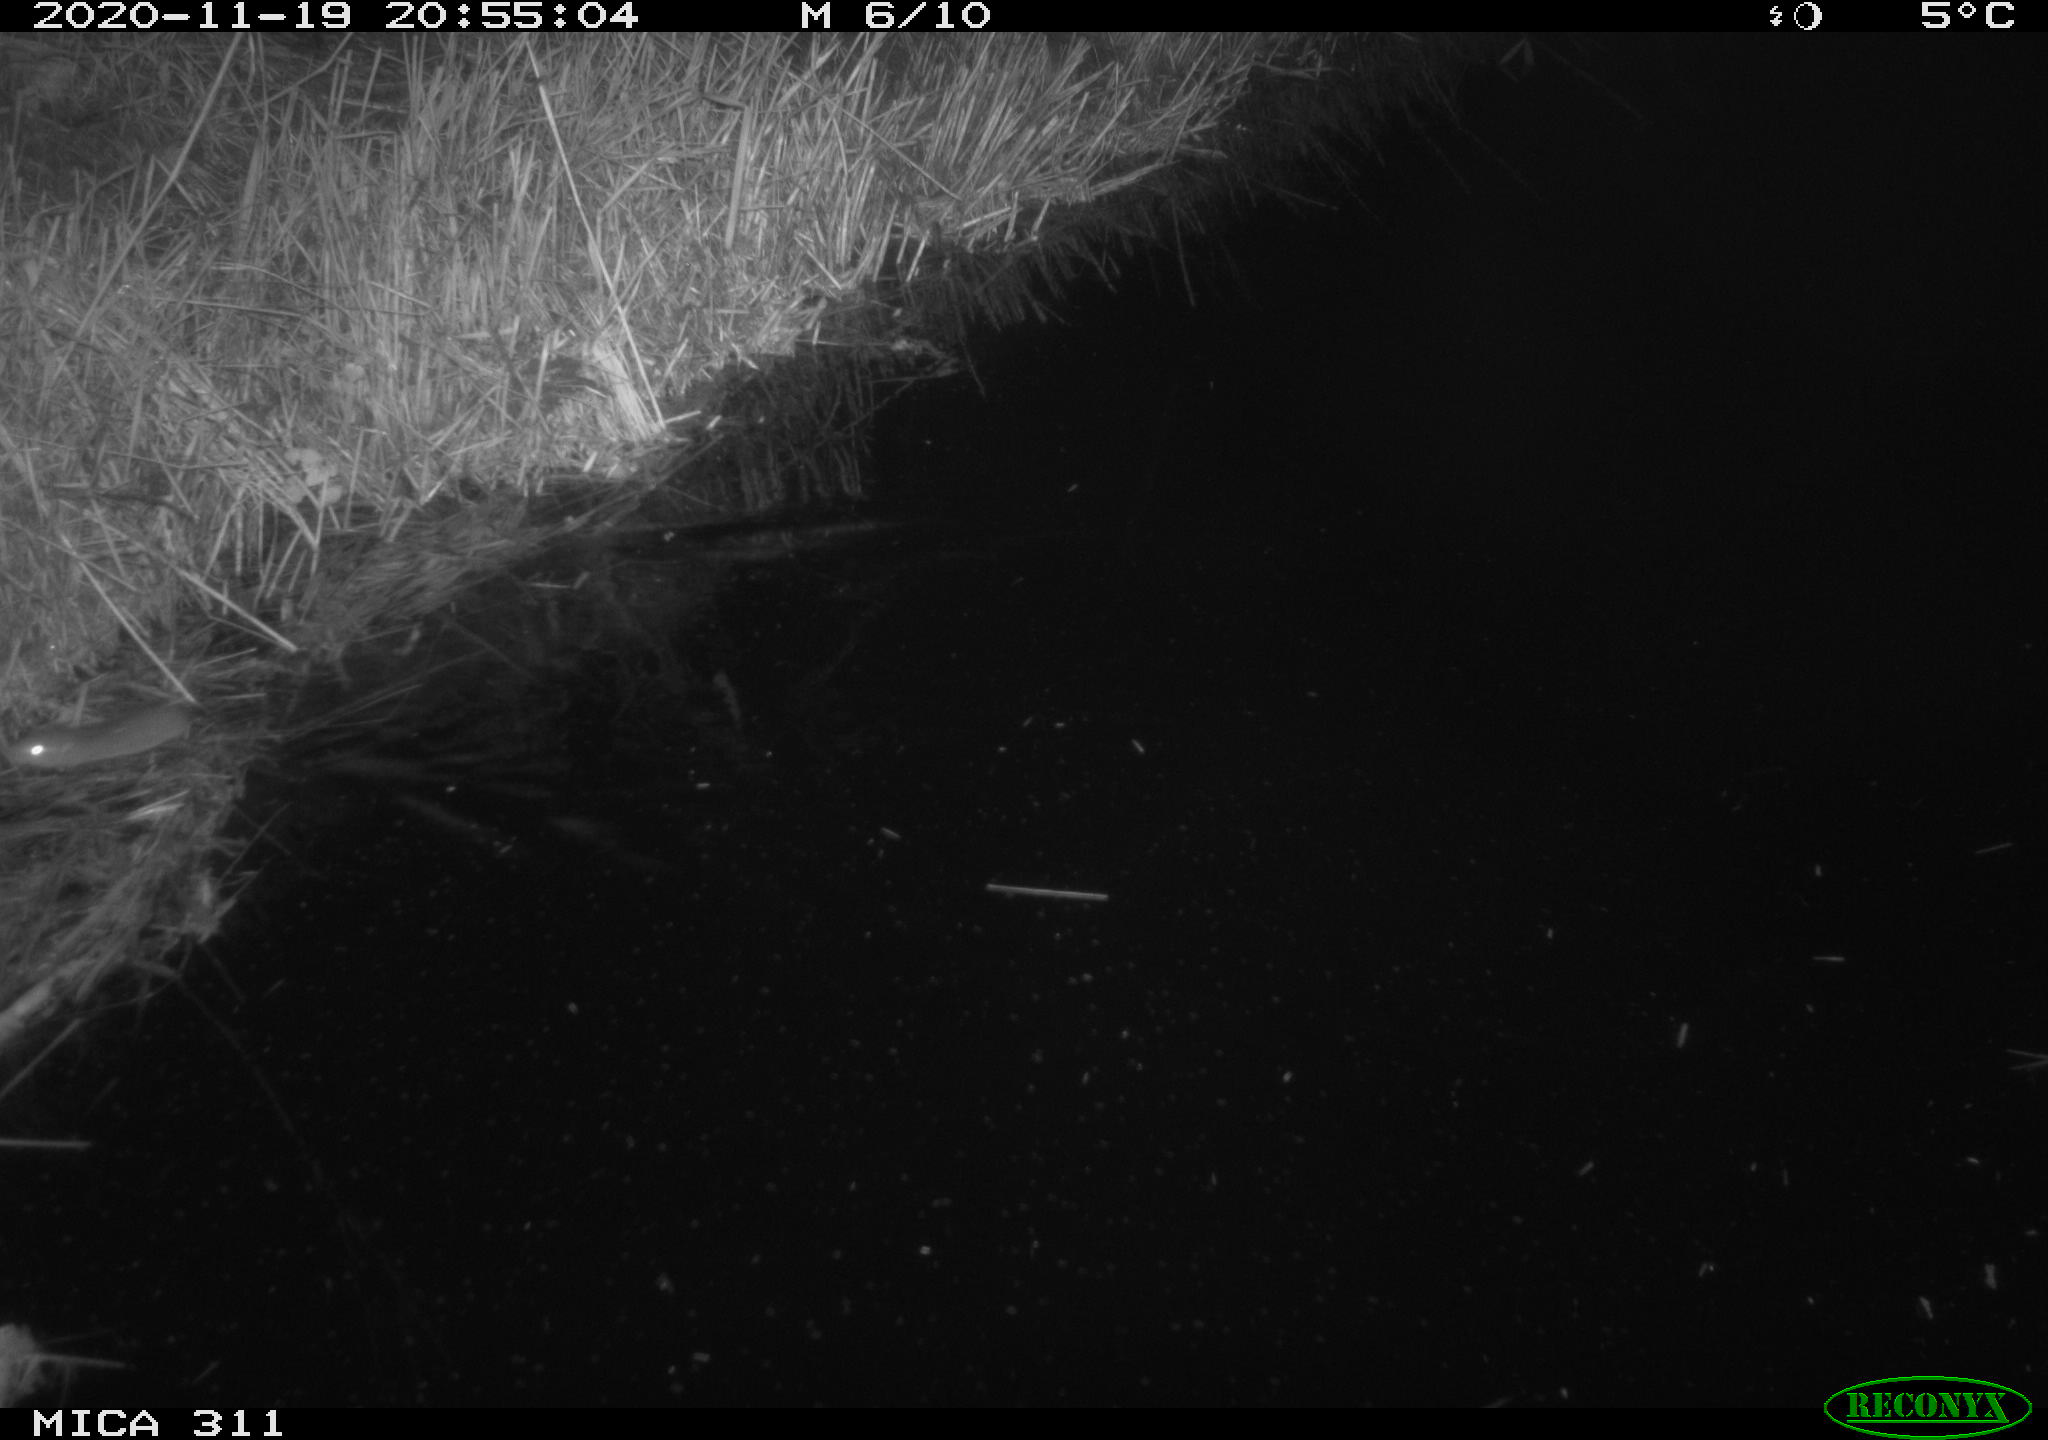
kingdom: Animalia
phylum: Chordata
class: Mammalia
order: Rodentia
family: Muridae
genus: Rattus
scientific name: Rattus norvegicus
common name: Brown rat
